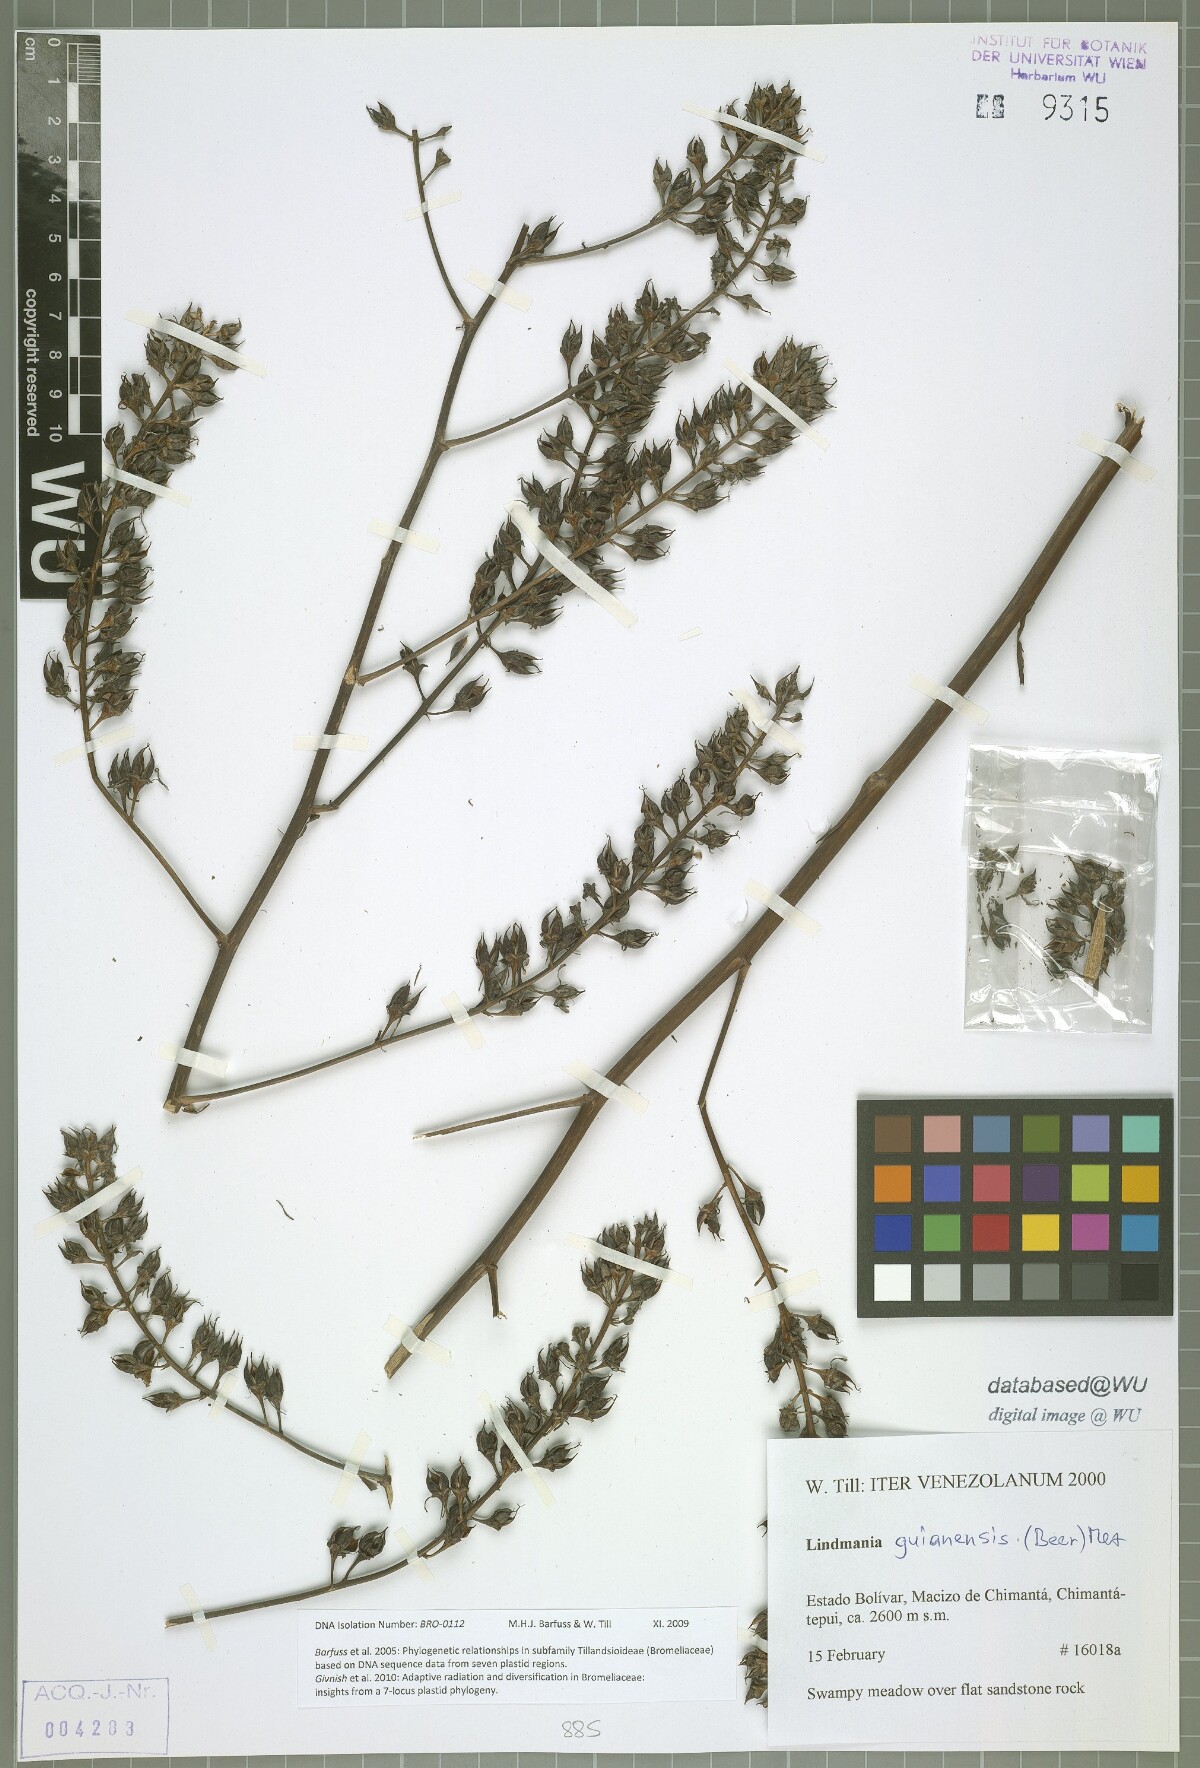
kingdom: Plantae
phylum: Tracheophyta
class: Liliopsida
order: Poales
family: Bromeliaceae
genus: Lindmania
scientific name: Lindmania guianensis
